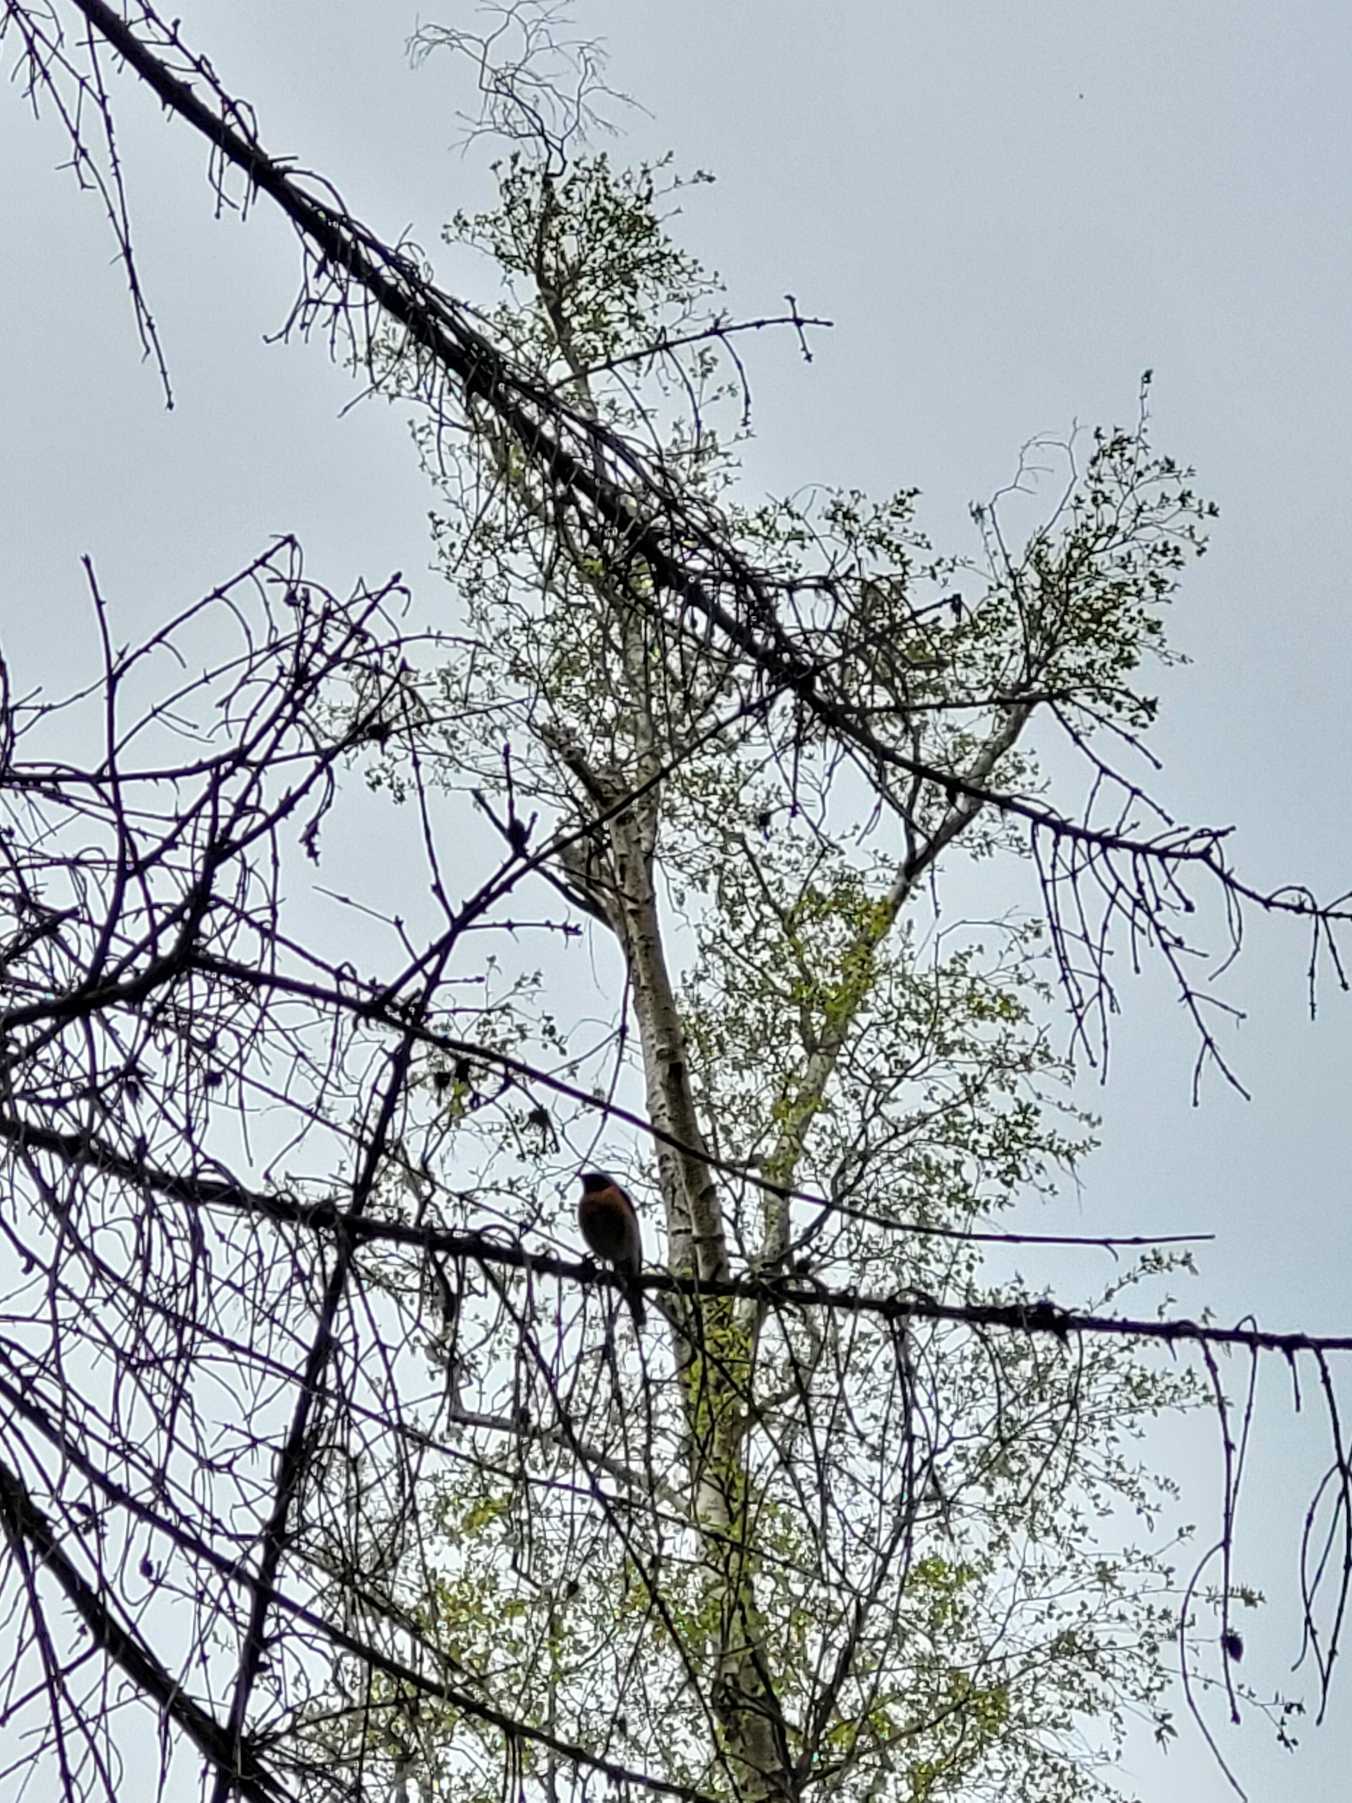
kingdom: Animalia
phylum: Chordata
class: Aves
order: Passeriformes
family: Muscicapidae
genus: Phoenicurus
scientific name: Phoenicurus phoenicurus
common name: Rødstjert
